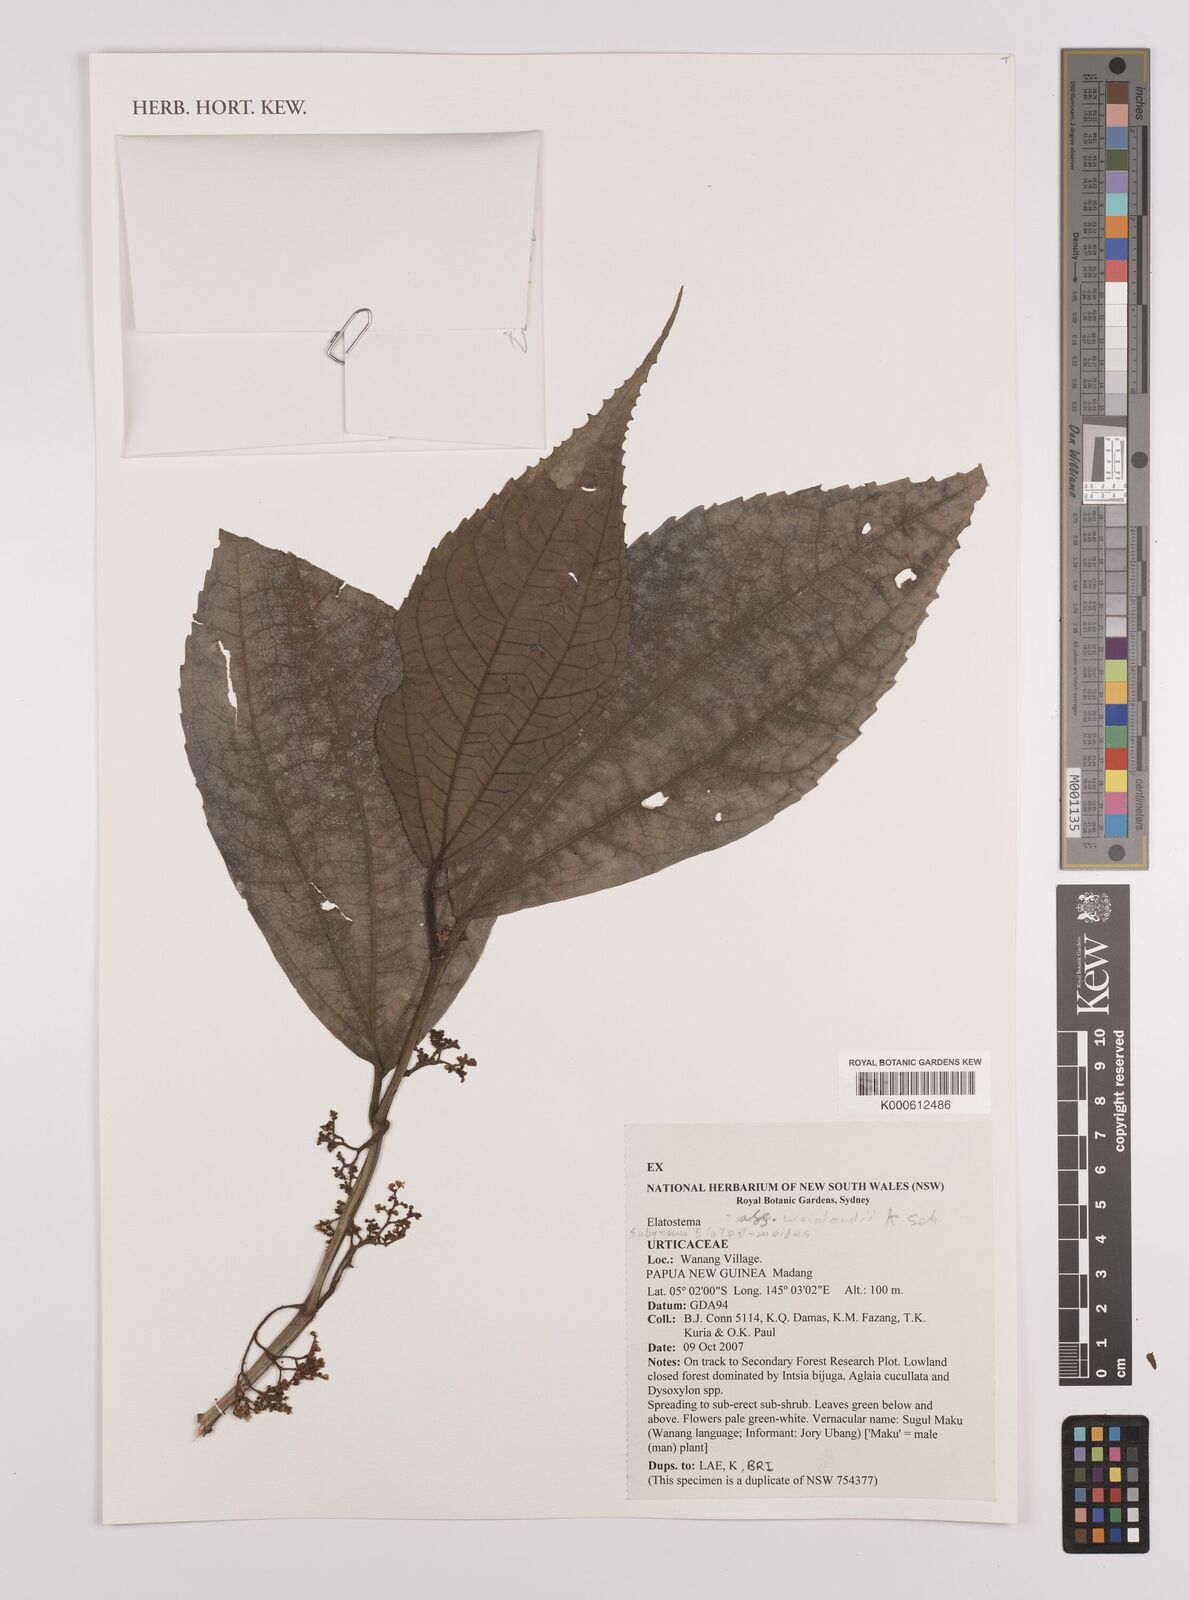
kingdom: Plantae
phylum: Tracheophyta
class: Magnoliopsida
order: Rosales
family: Urticaceae
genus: Elatostema
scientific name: Elatostema weinlandii
